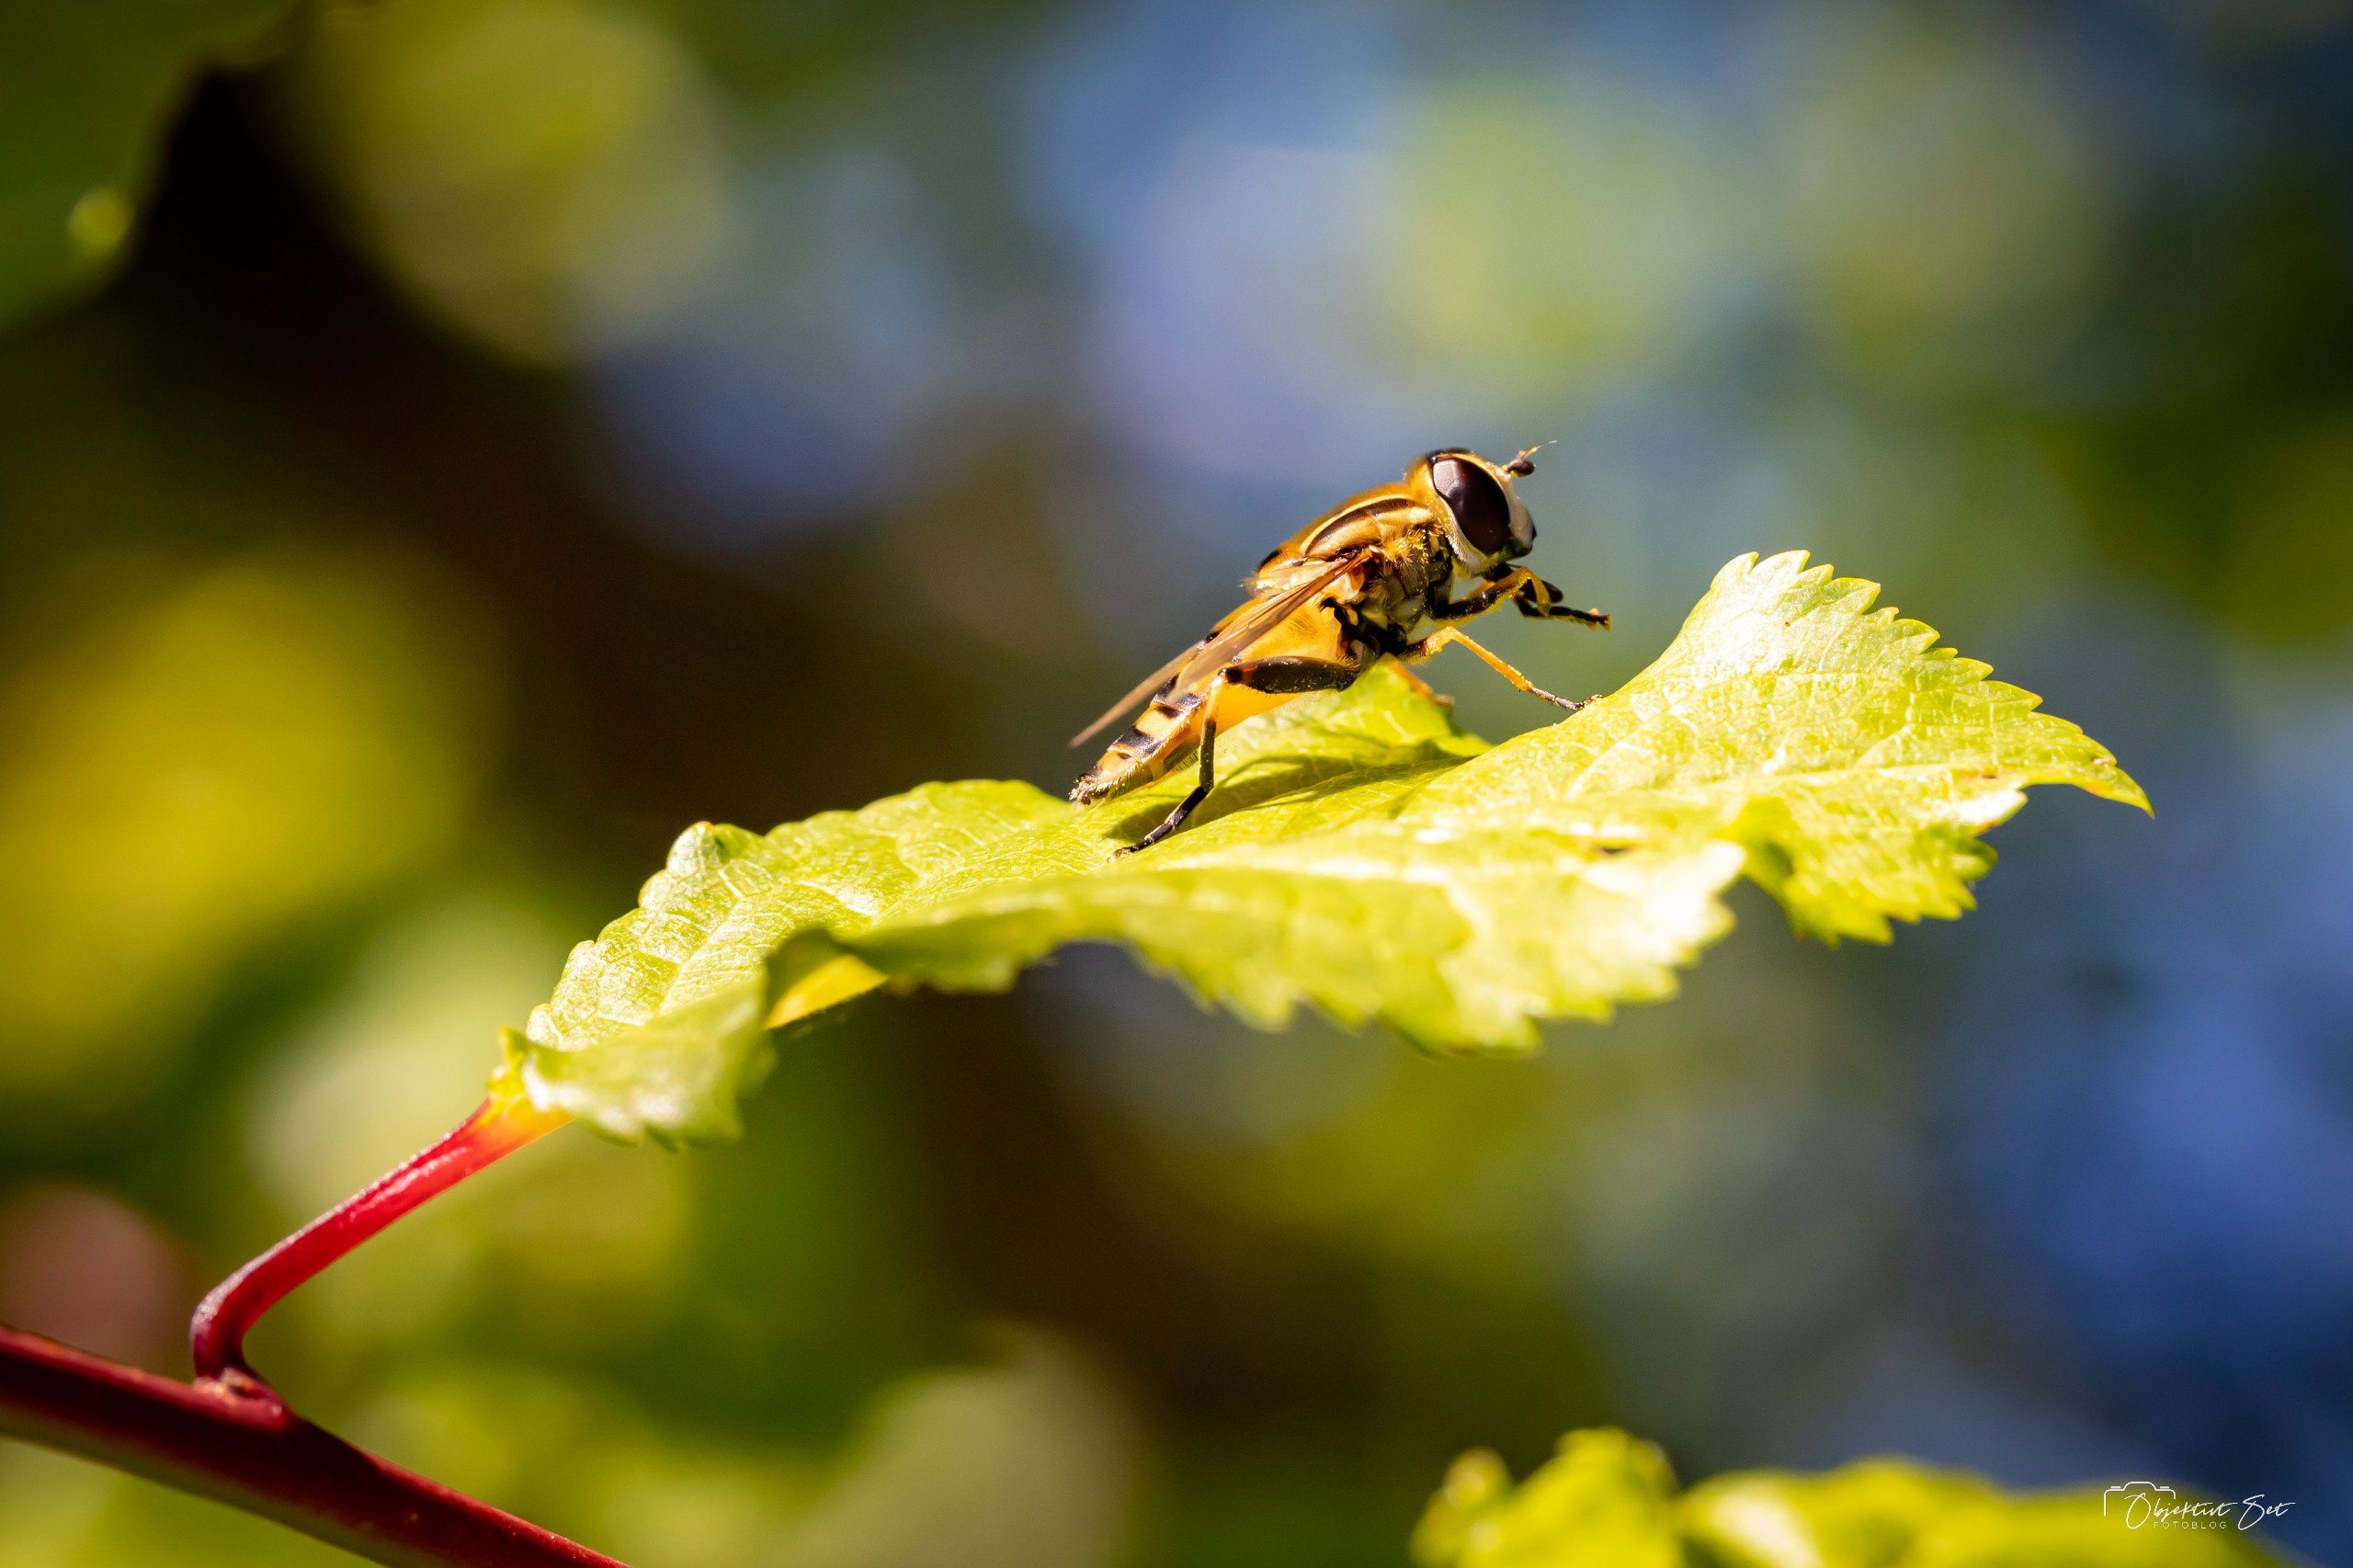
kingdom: Animalia
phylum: Arthropoda
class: Insecta
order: Diptera
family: Syrphidae
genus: Helophilus
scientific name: Helophilus pendulus
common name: Almindelig sumpsvirreflue
